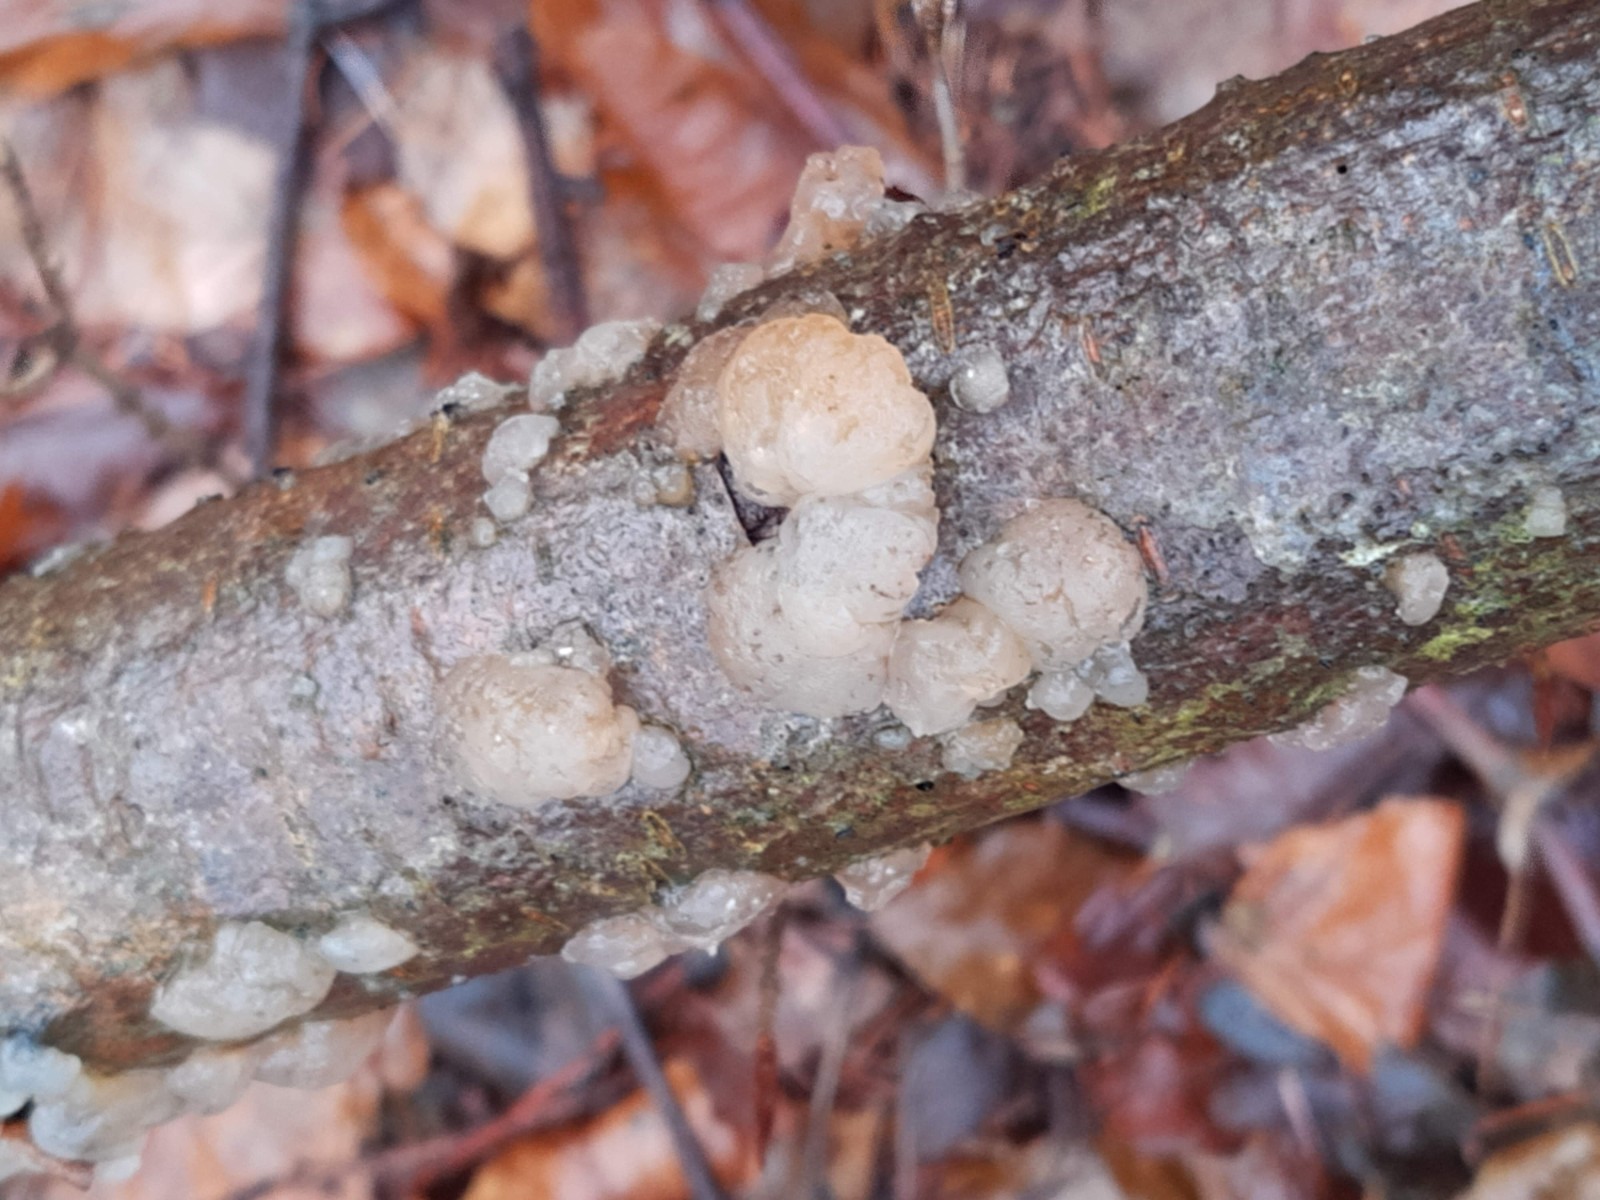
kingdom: Fungi
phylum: Basidiomycota
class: Agaricomycetes
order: Auriculariales
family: Hyaloriaceae
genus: Myxarium
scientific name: Myxarium hyalinum
